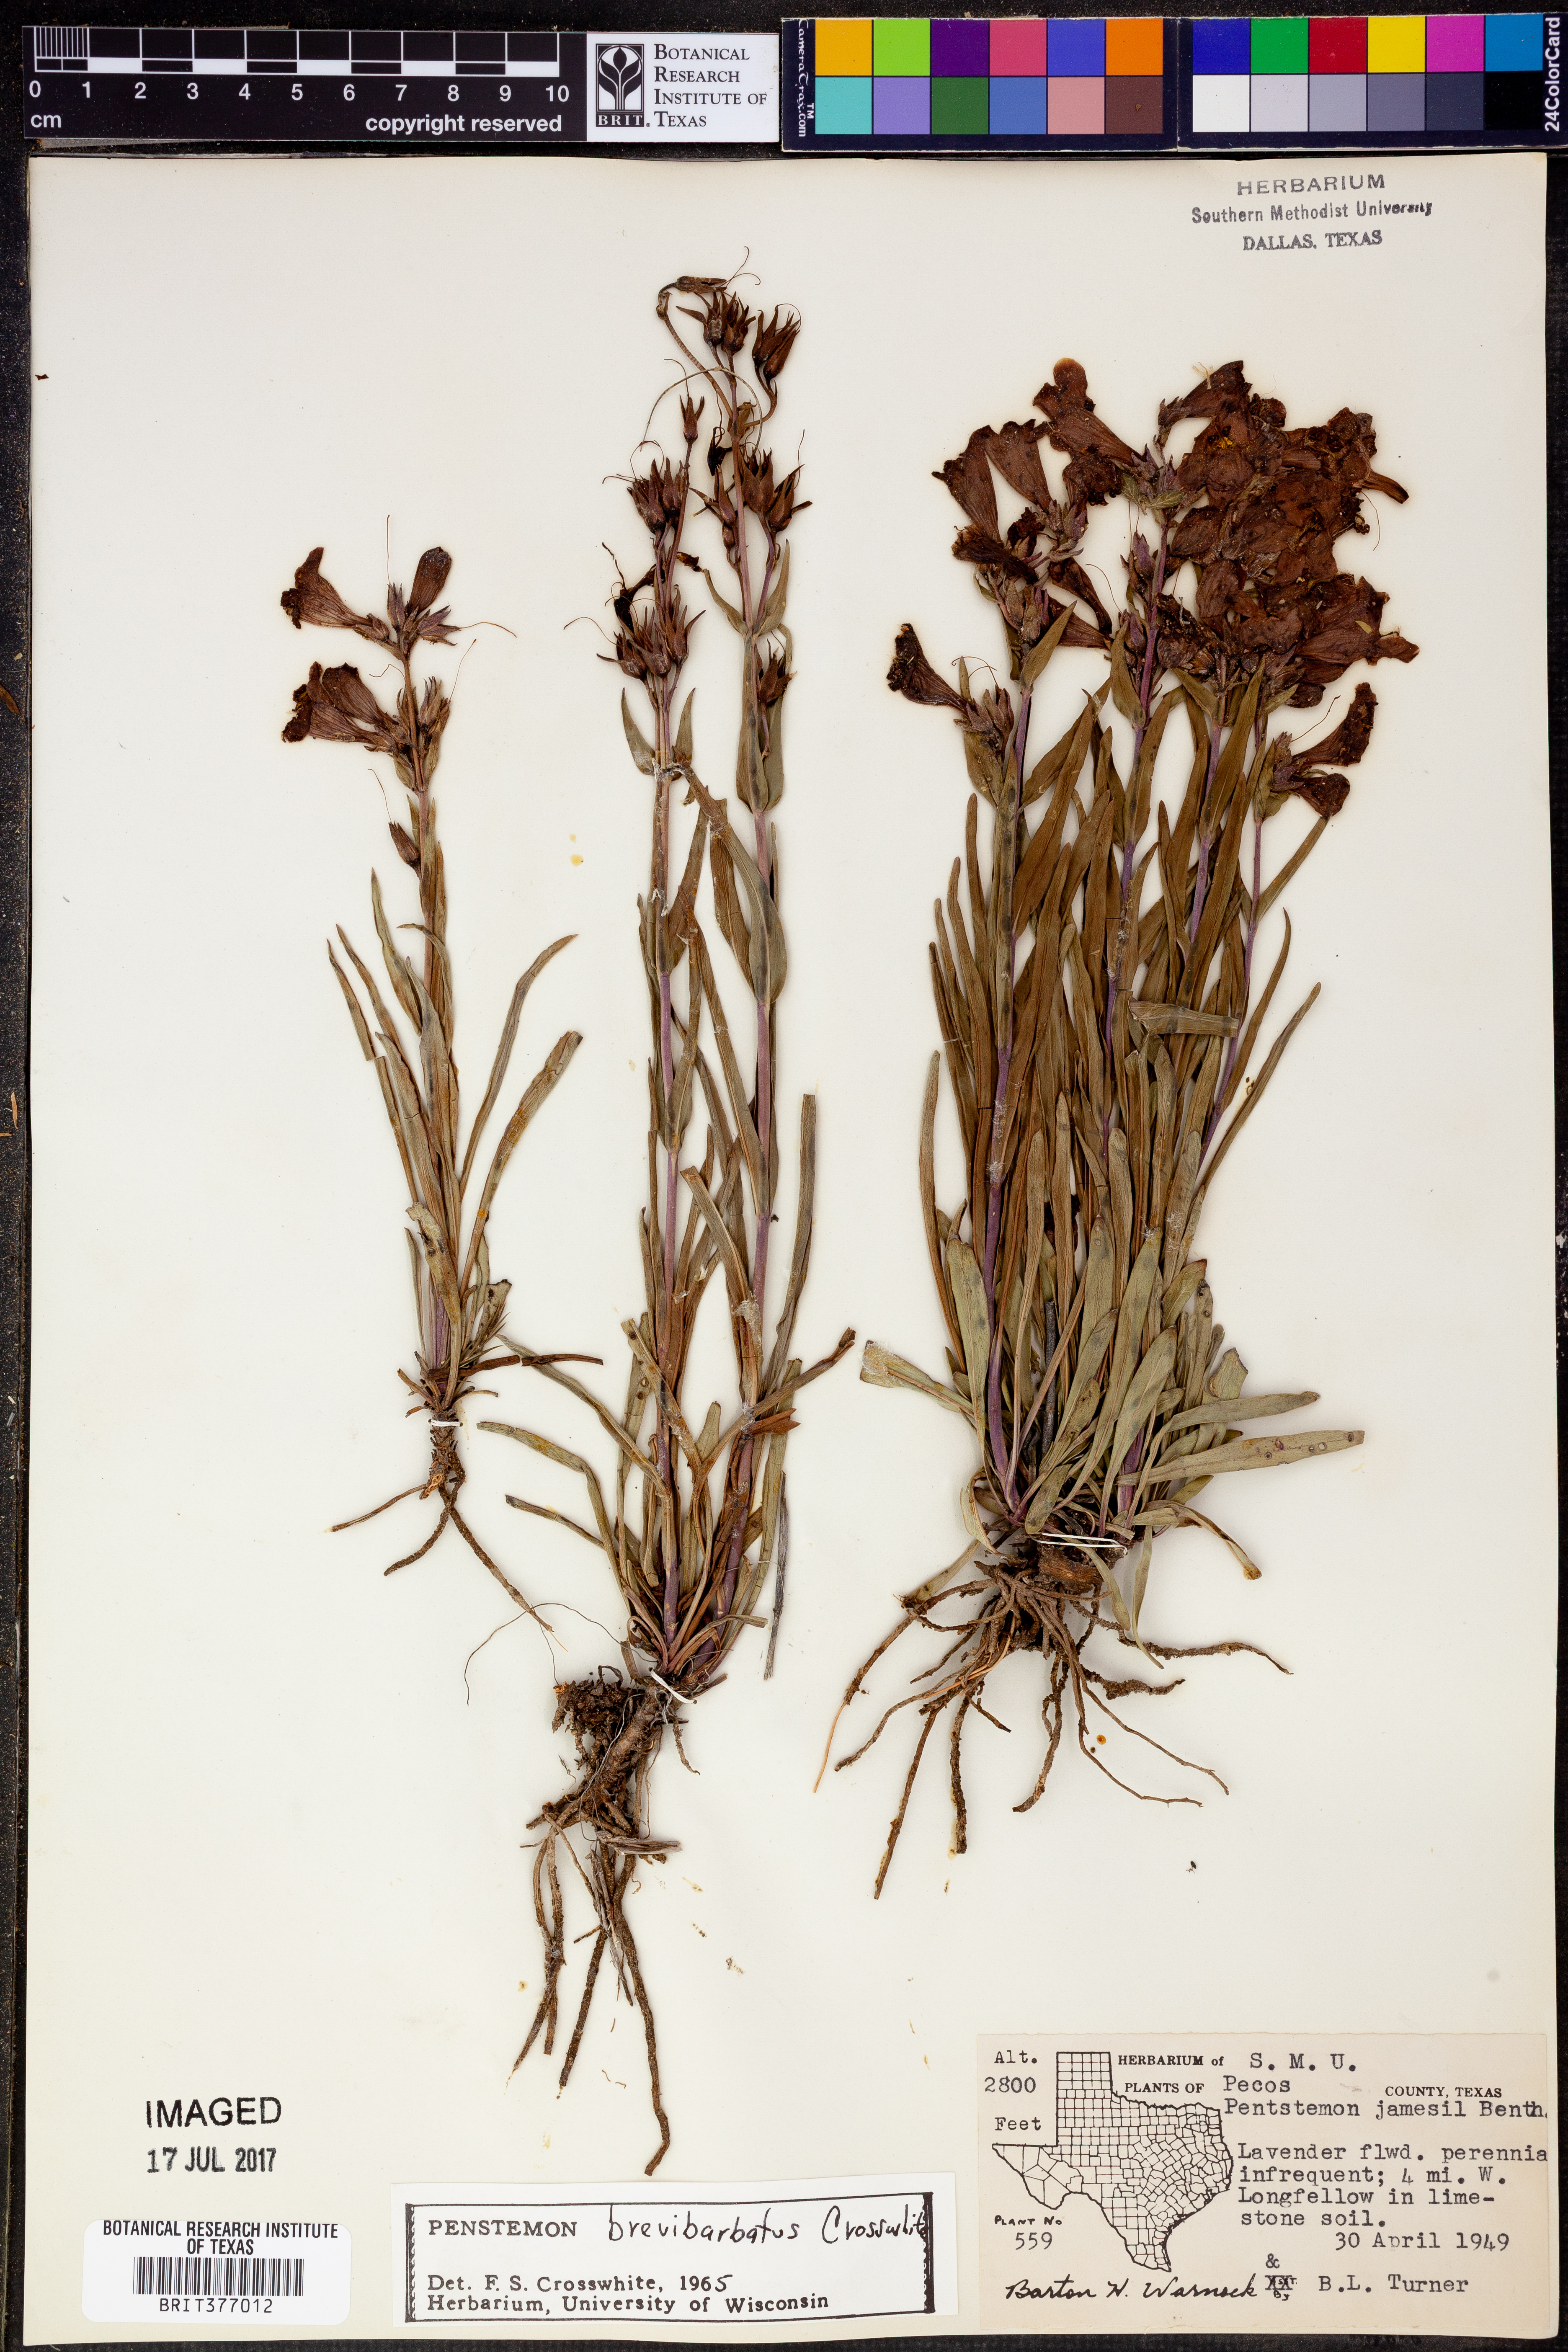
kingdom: Plantae
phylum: Tracheophyta
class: Magnoliopsida
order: Lamiales
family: Plantaginaceae
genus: Penstemon
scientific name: Penstemon jamesii
